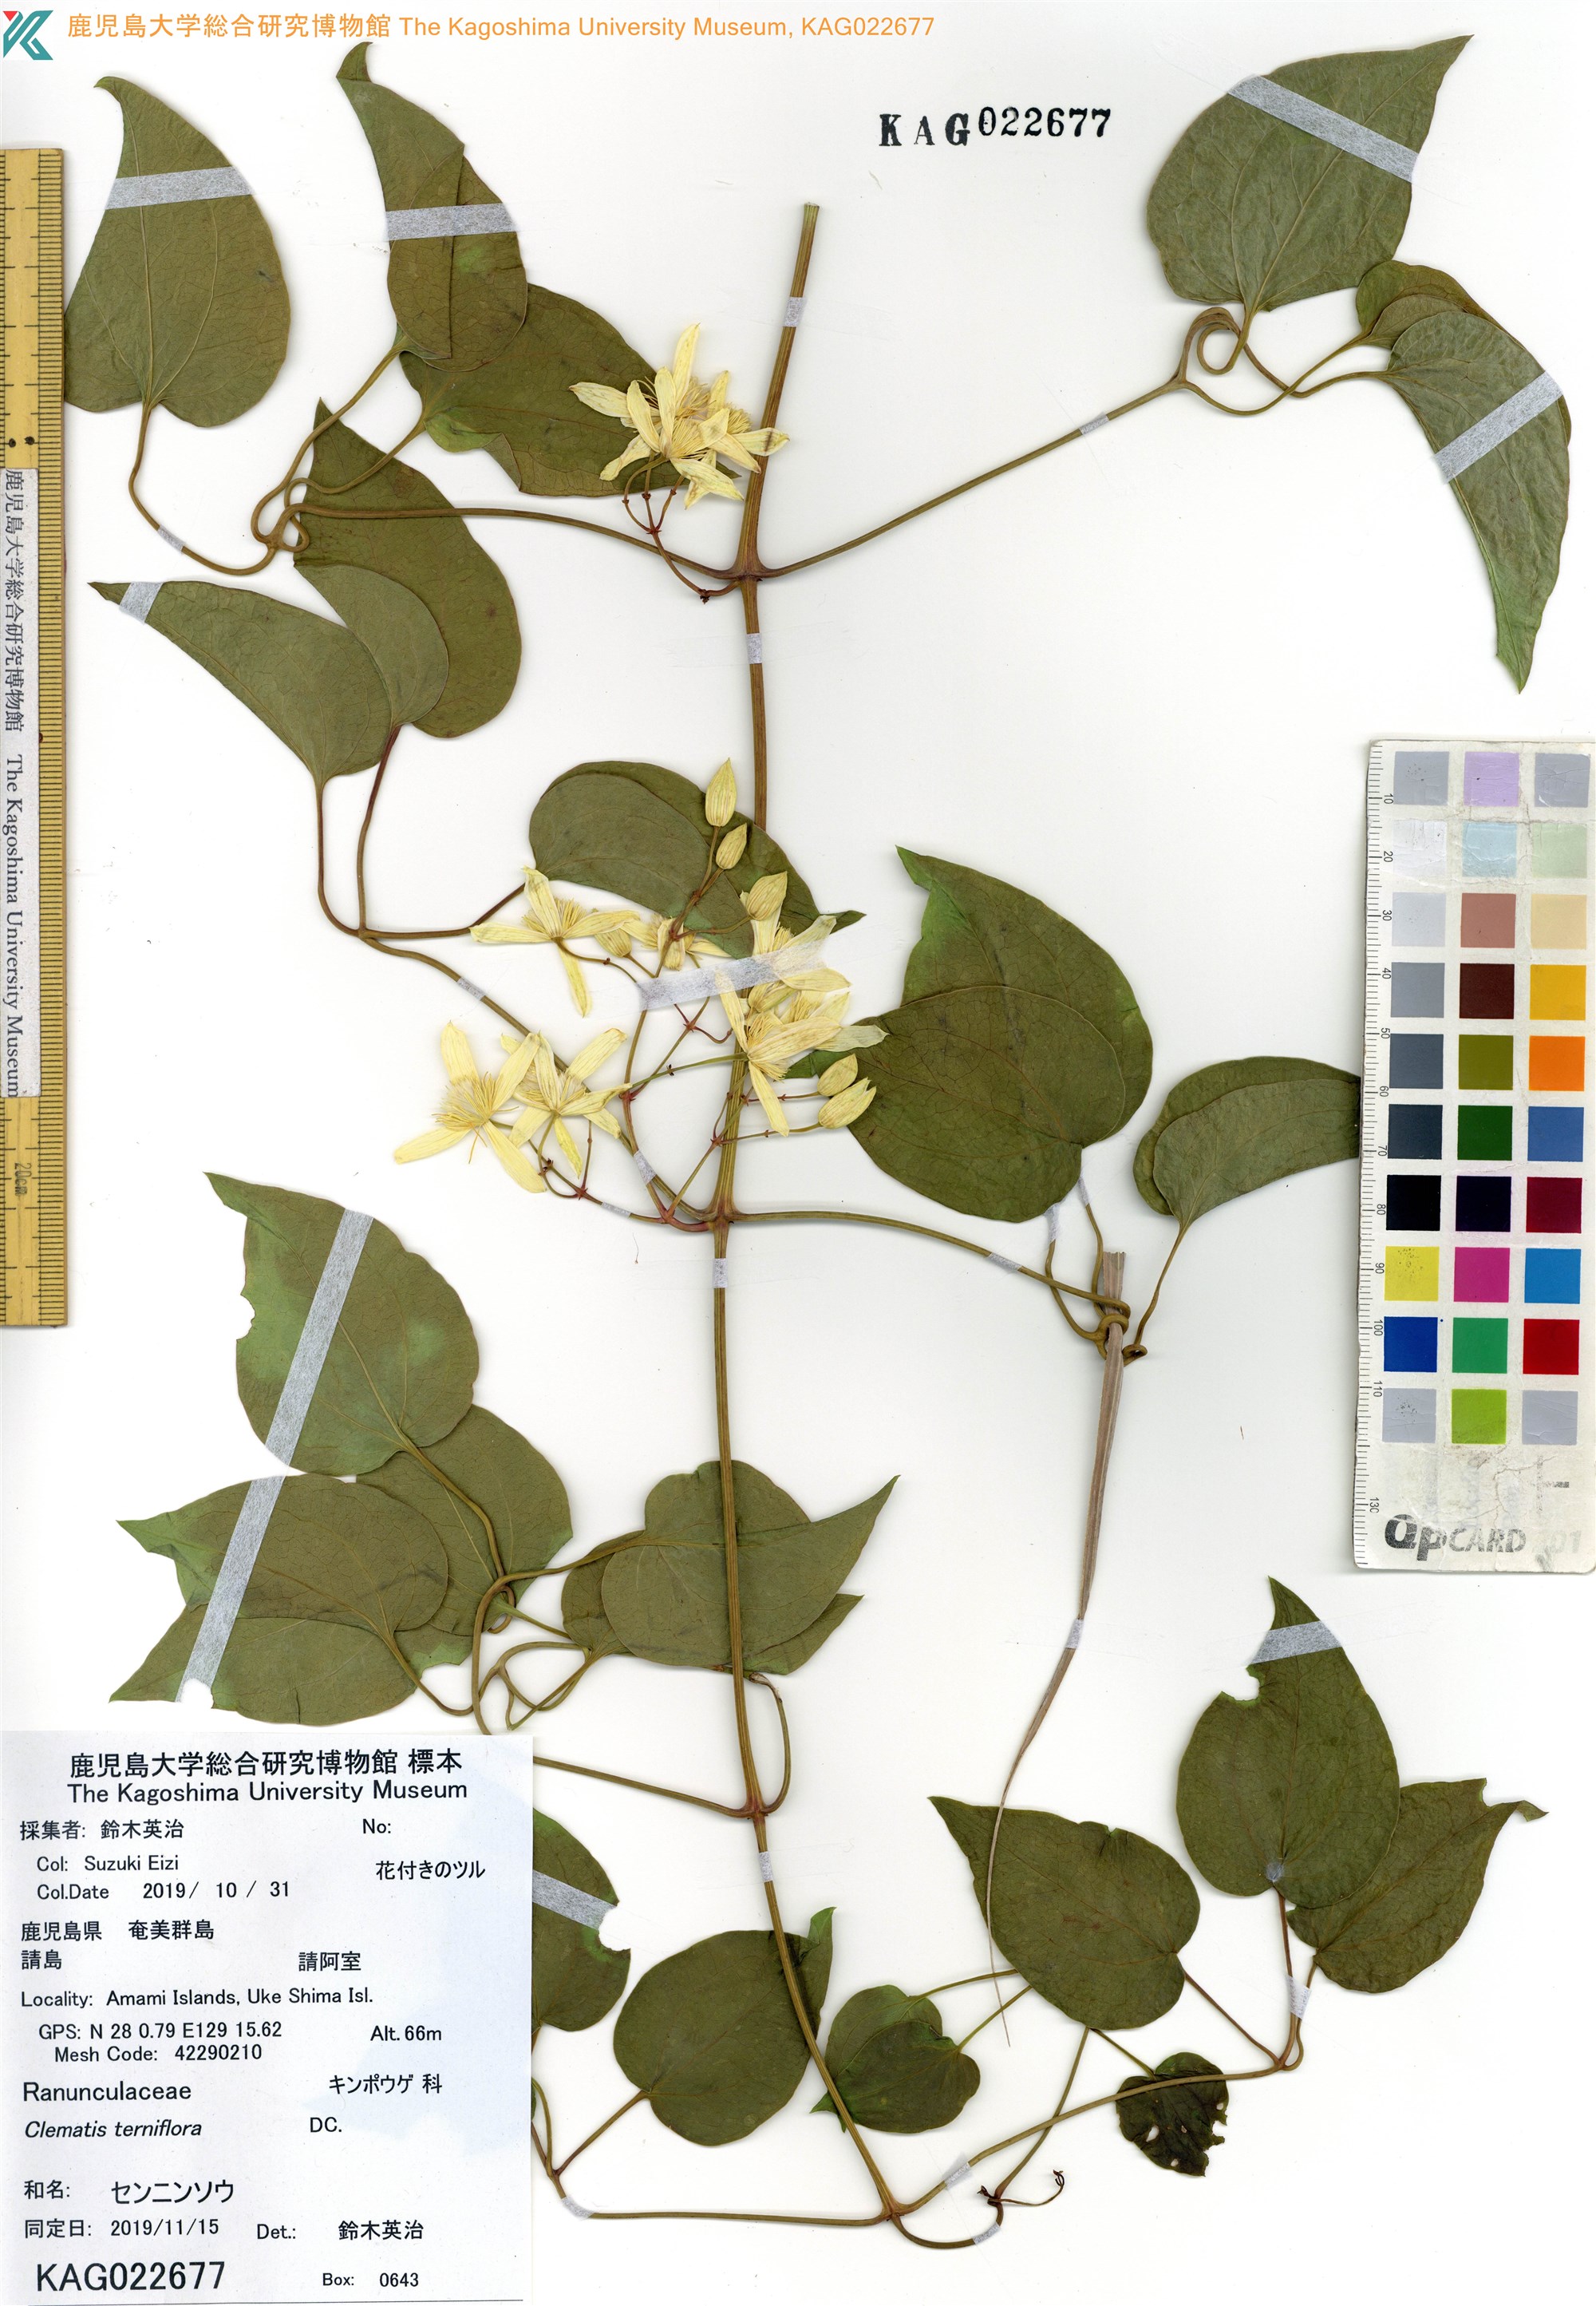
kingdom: Plantae
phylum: Tracheophyta
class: Magnoliopsida
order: Ranunculales
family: Ranunculaceae
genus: Clematis
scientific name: Clematis terniflora
